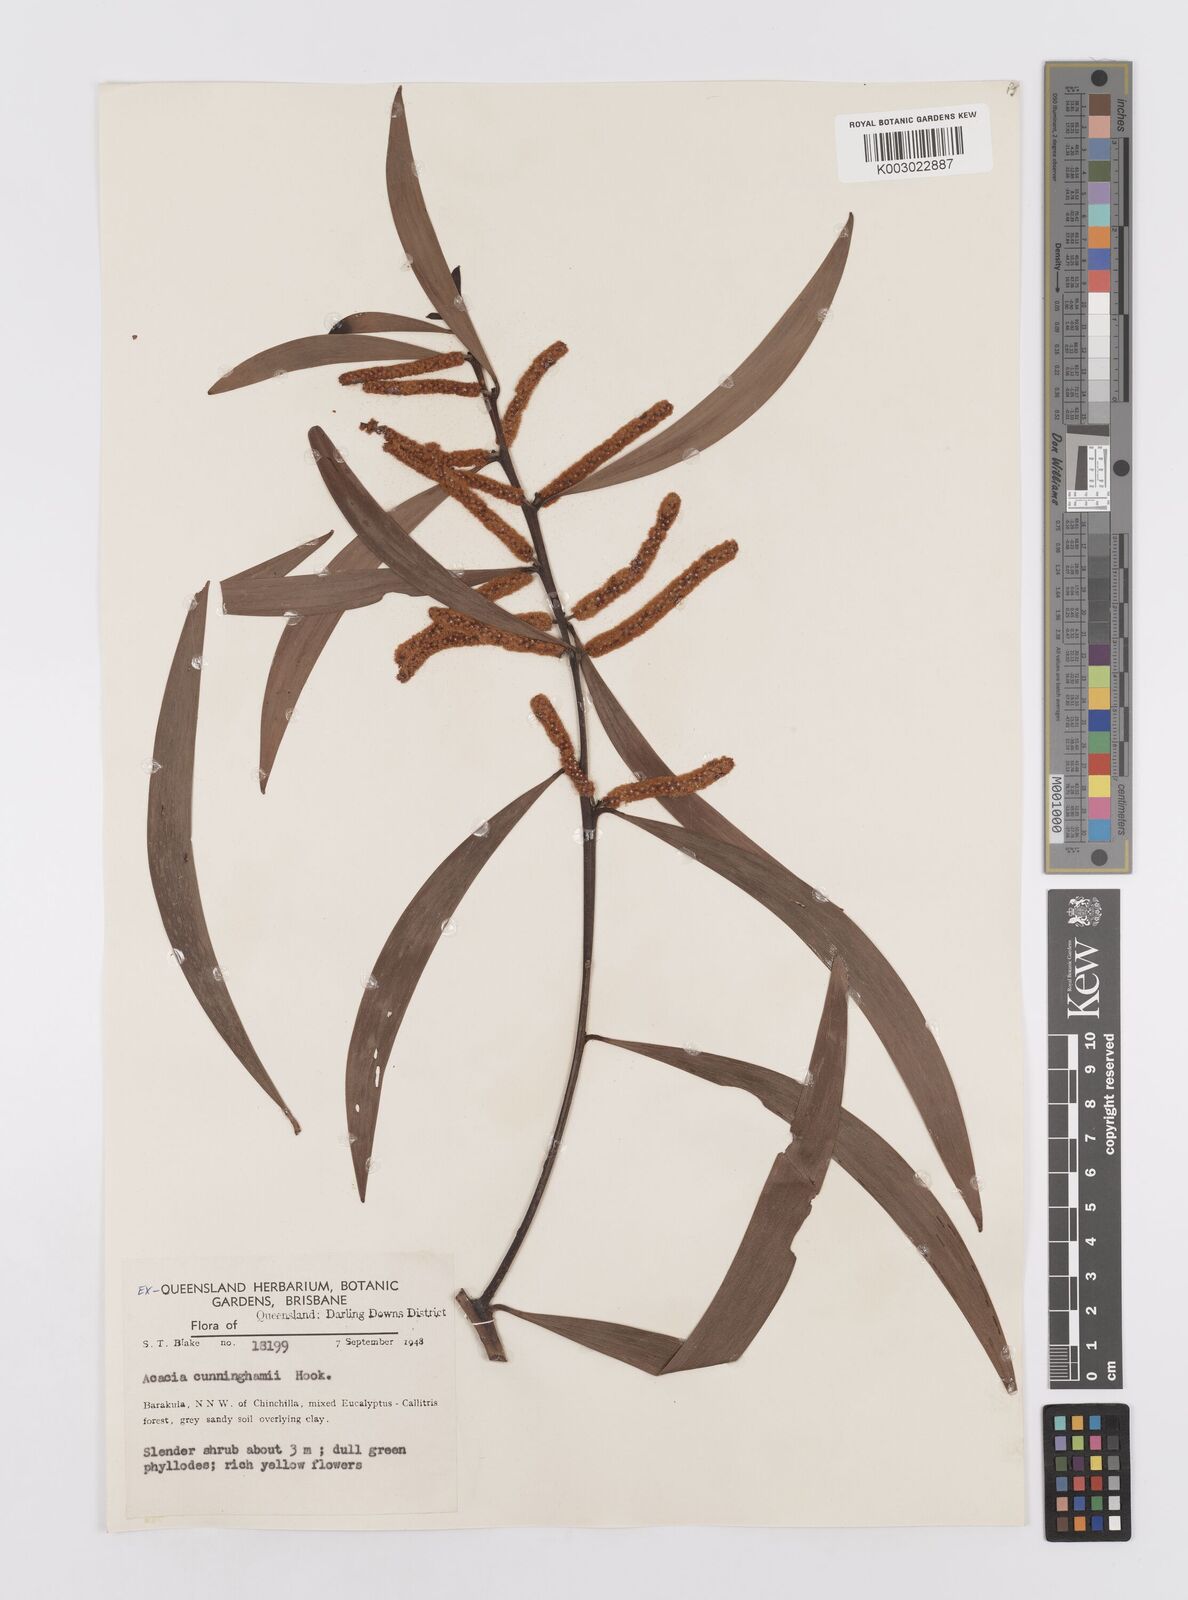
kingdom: Plantae
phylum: Tracheophyta
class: Magnoliopsida
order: Fabales
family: Fabaceae
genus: Acacia
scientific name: Acacia longispicata
